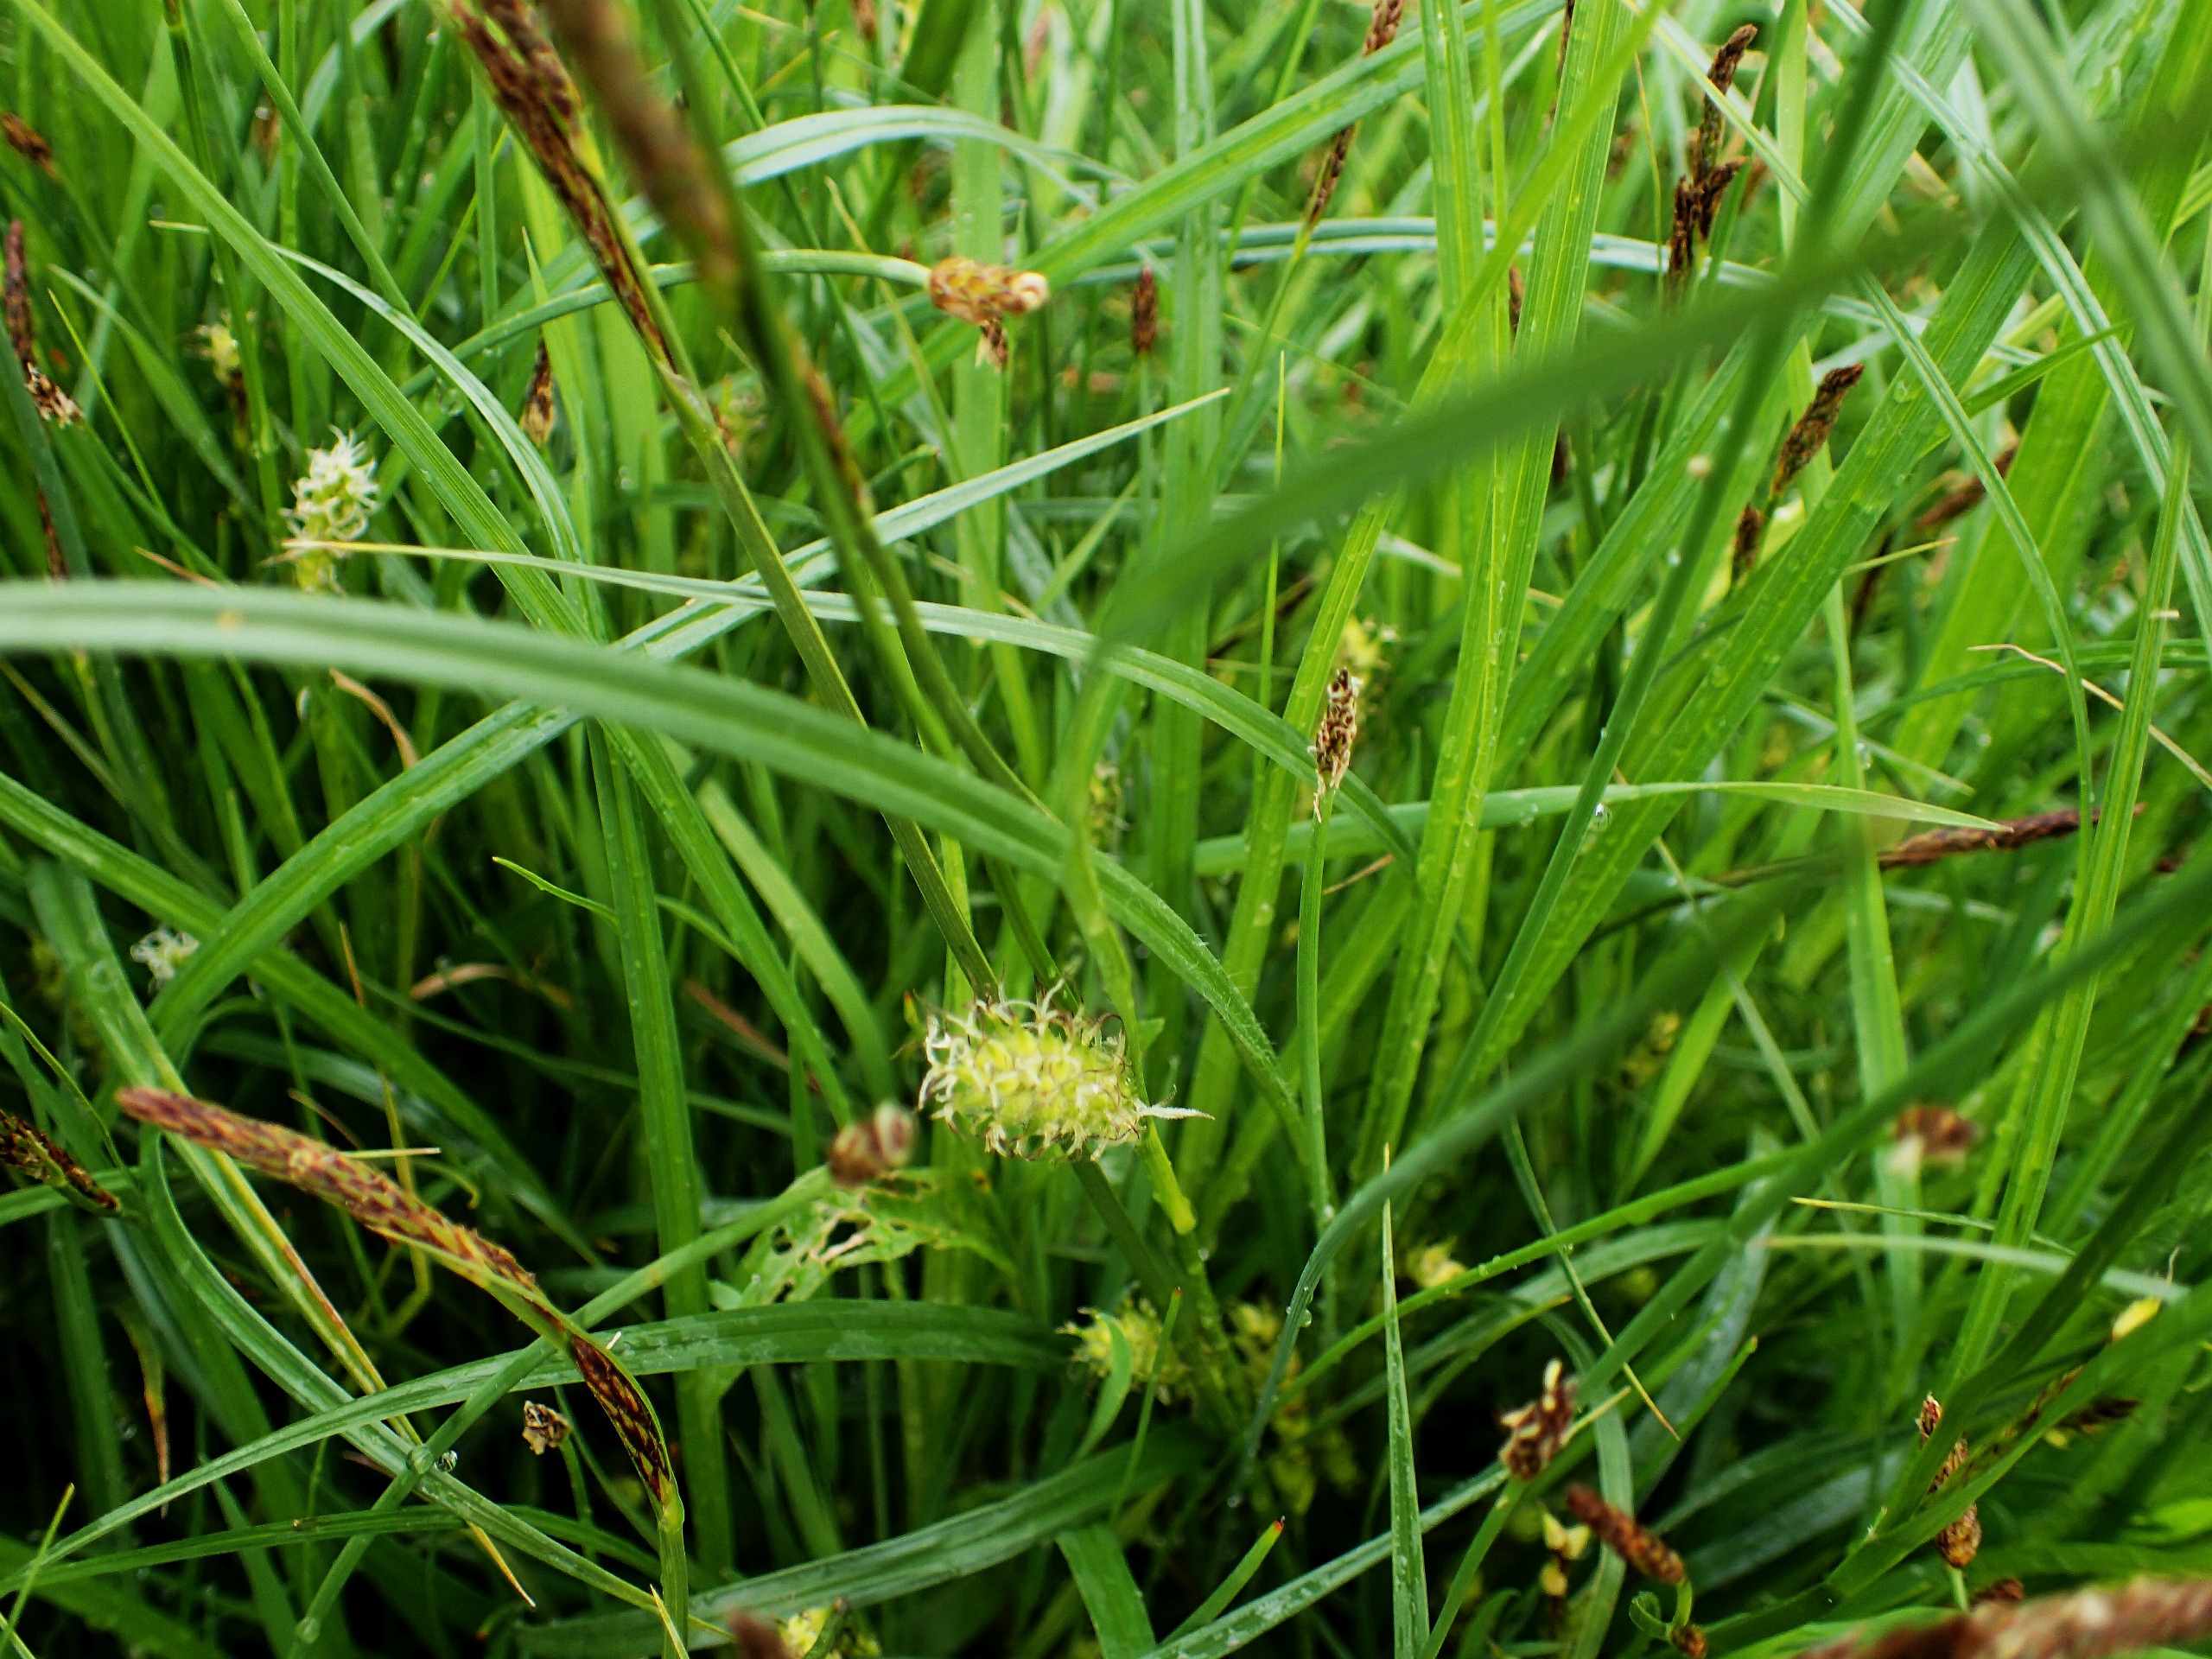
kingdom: Plantae
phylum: Tracheophyta
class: Liliopsida
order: Poales
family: Cyperaceae
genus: Carex
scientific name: Carex hirta
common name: Håret star
